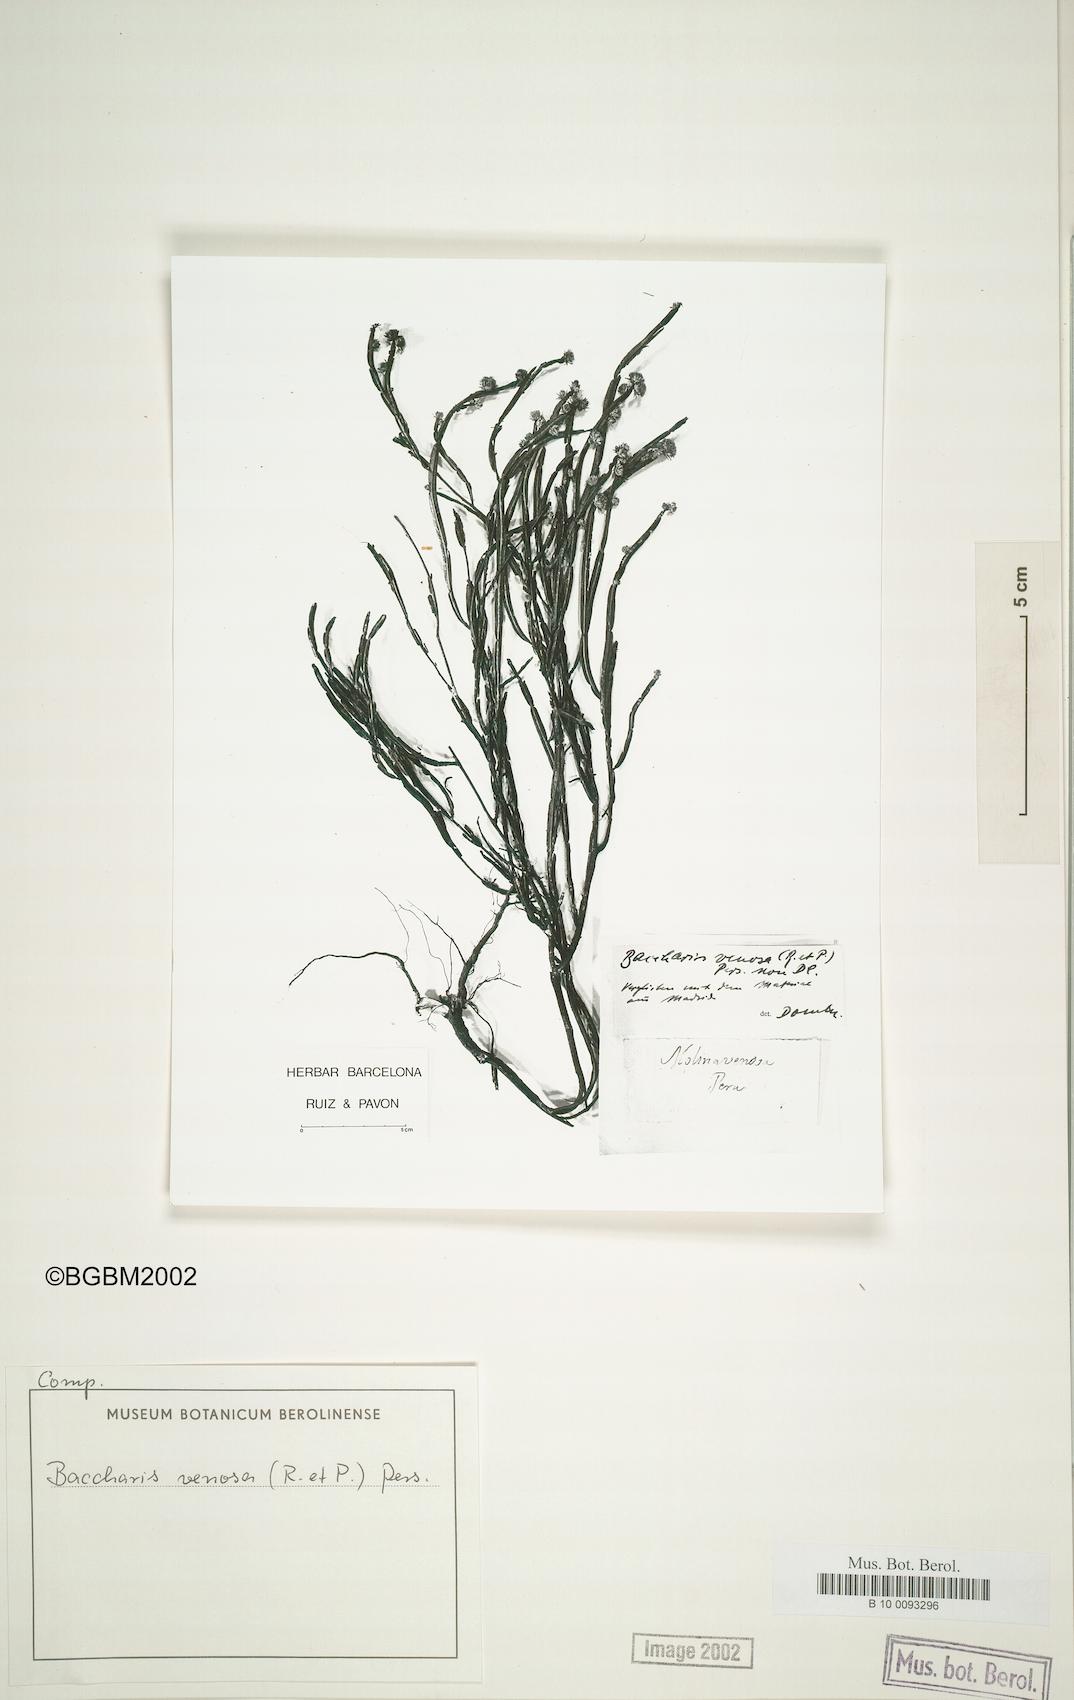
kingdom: Plantae
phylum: Tracheophyta
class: Magnoliopsida
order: Asterales
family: Asteraceae
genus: Baccharis
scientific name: Baccharis genistelloides
